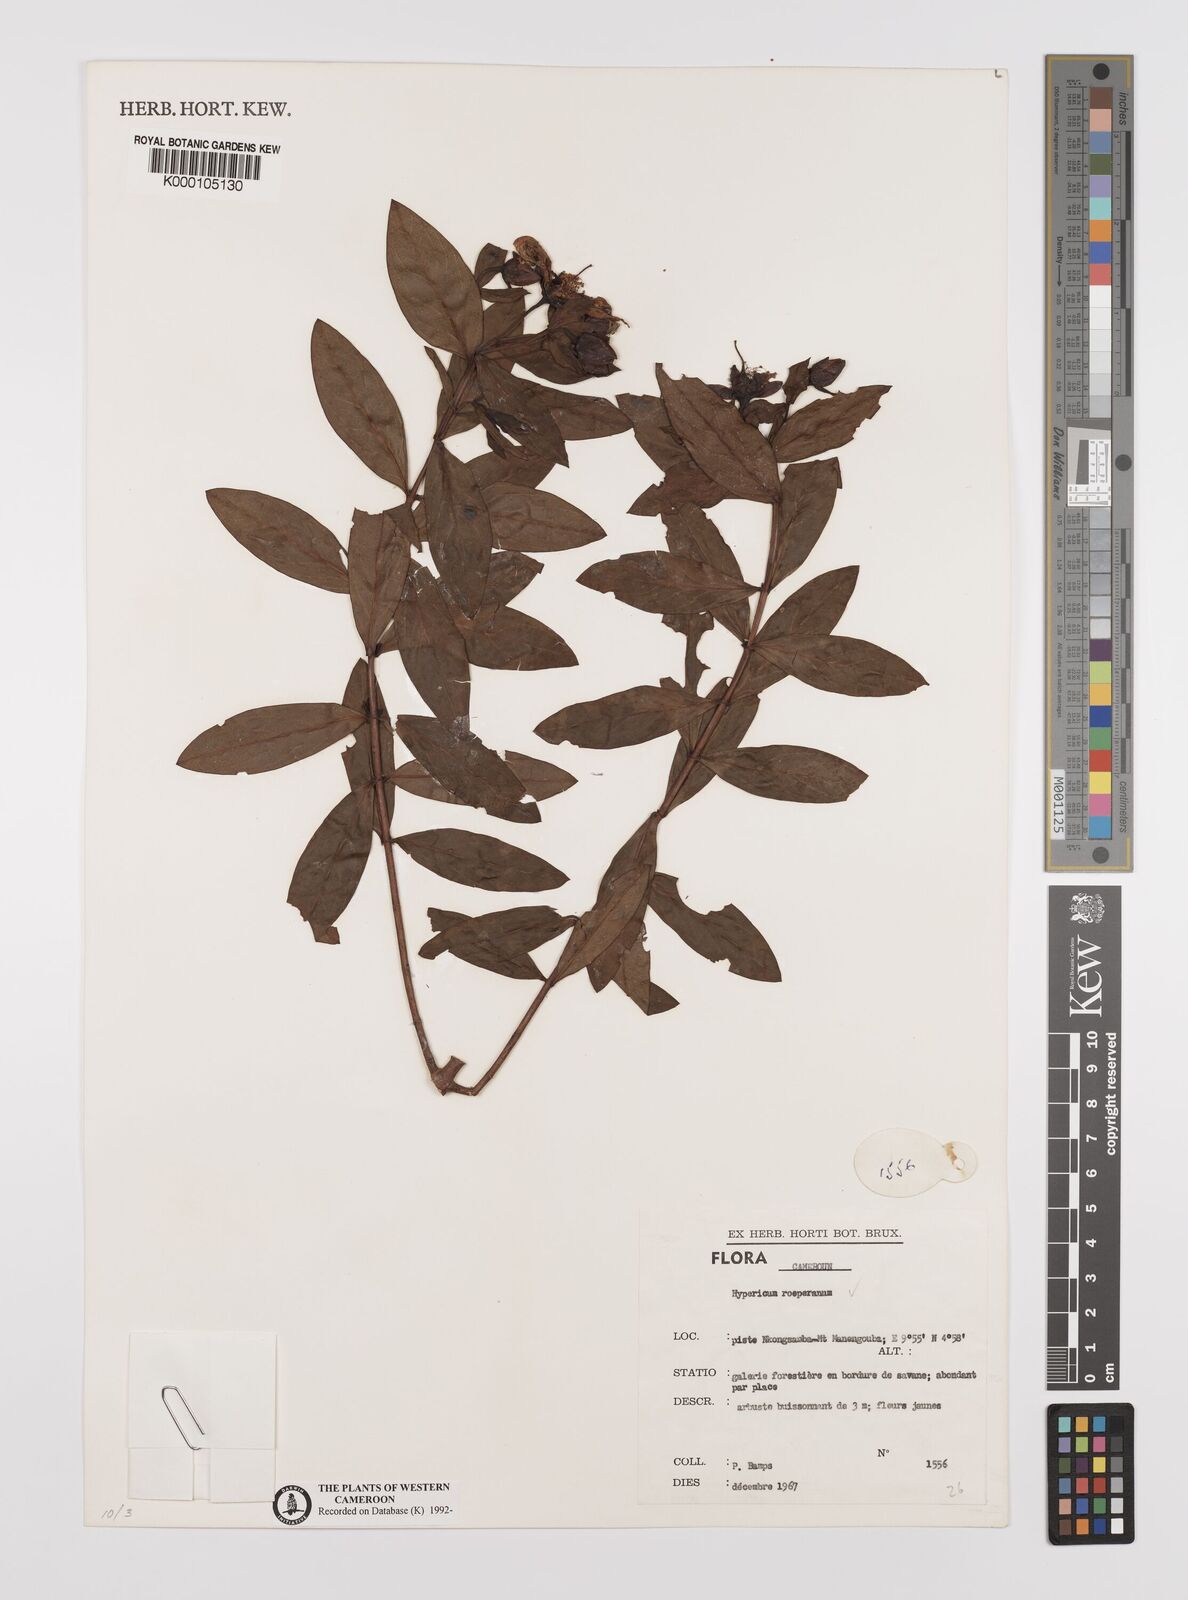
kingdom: Plantae
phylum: Tracheophyta
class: Magnoliopsida
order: Malpighiales
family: Hypericaceae
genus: Hypericum
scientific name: Hypericum roeperianum
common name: Large-leaved curry-bush
